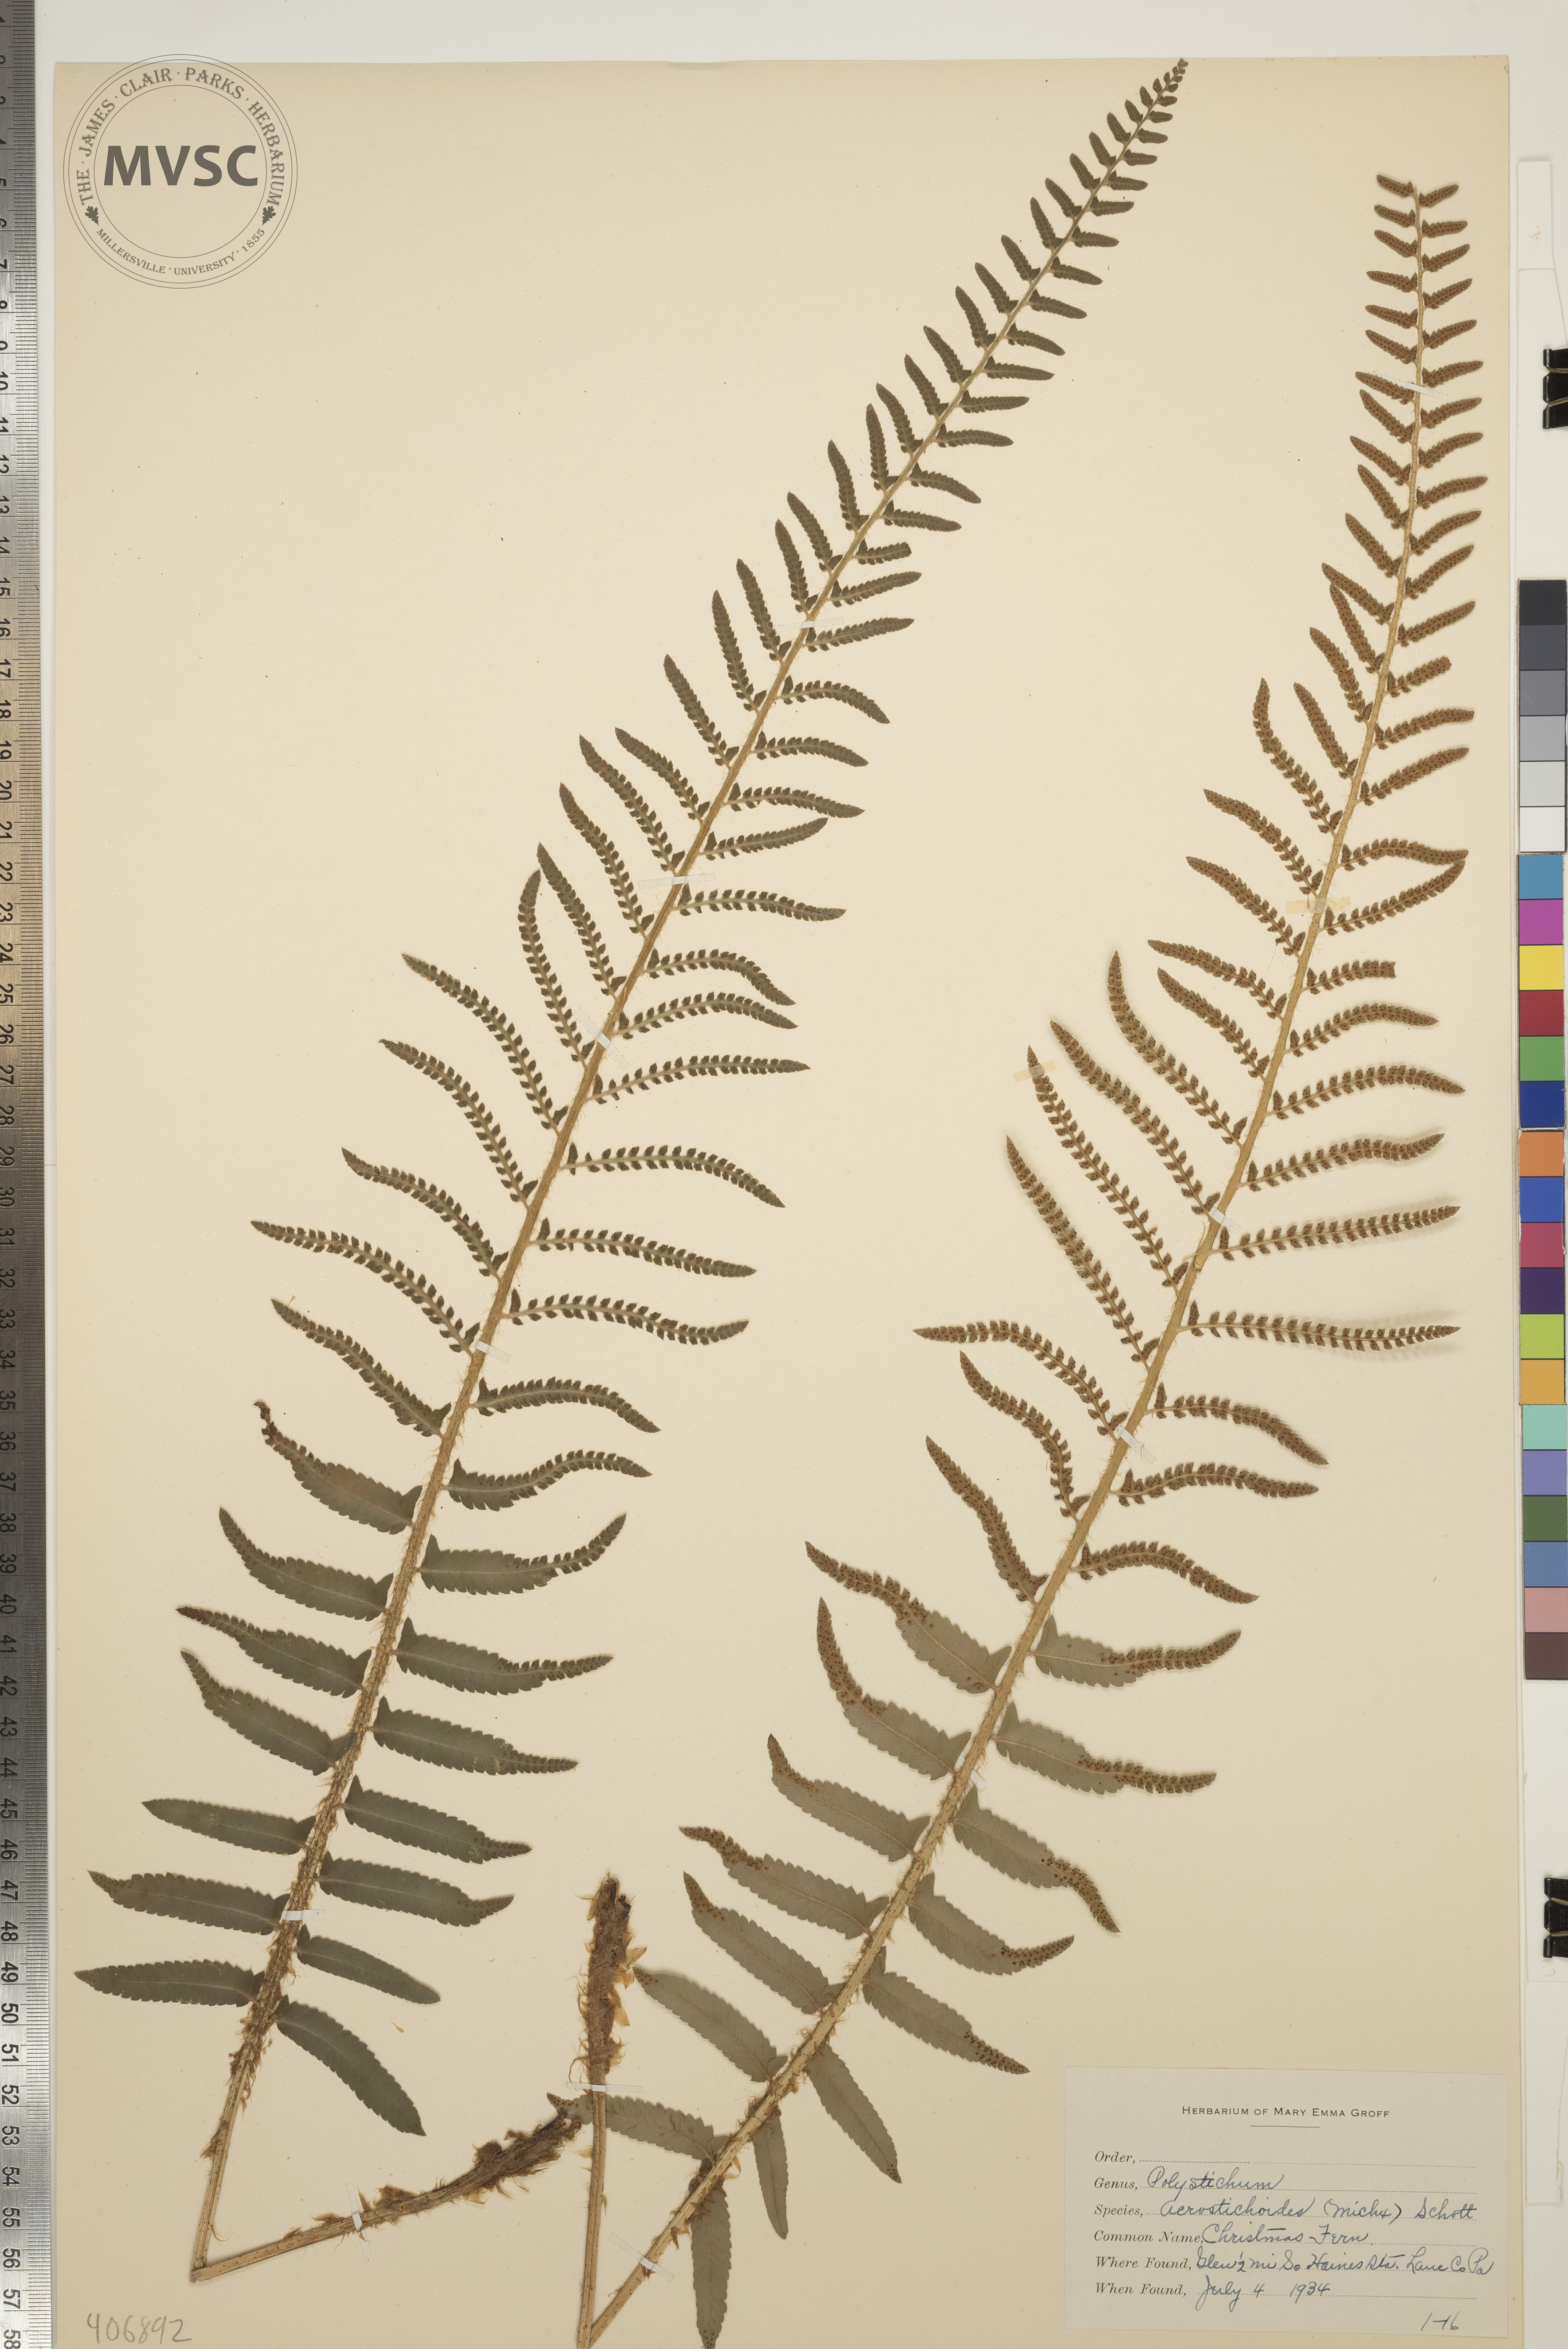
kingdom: Plantae
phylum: Tracheophyta
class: Polypodiopsida
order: Polypodiales
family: Dryopteridaceae
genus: Polystichum
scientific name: Polystichum acrostichoides
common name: Christmas Fern
